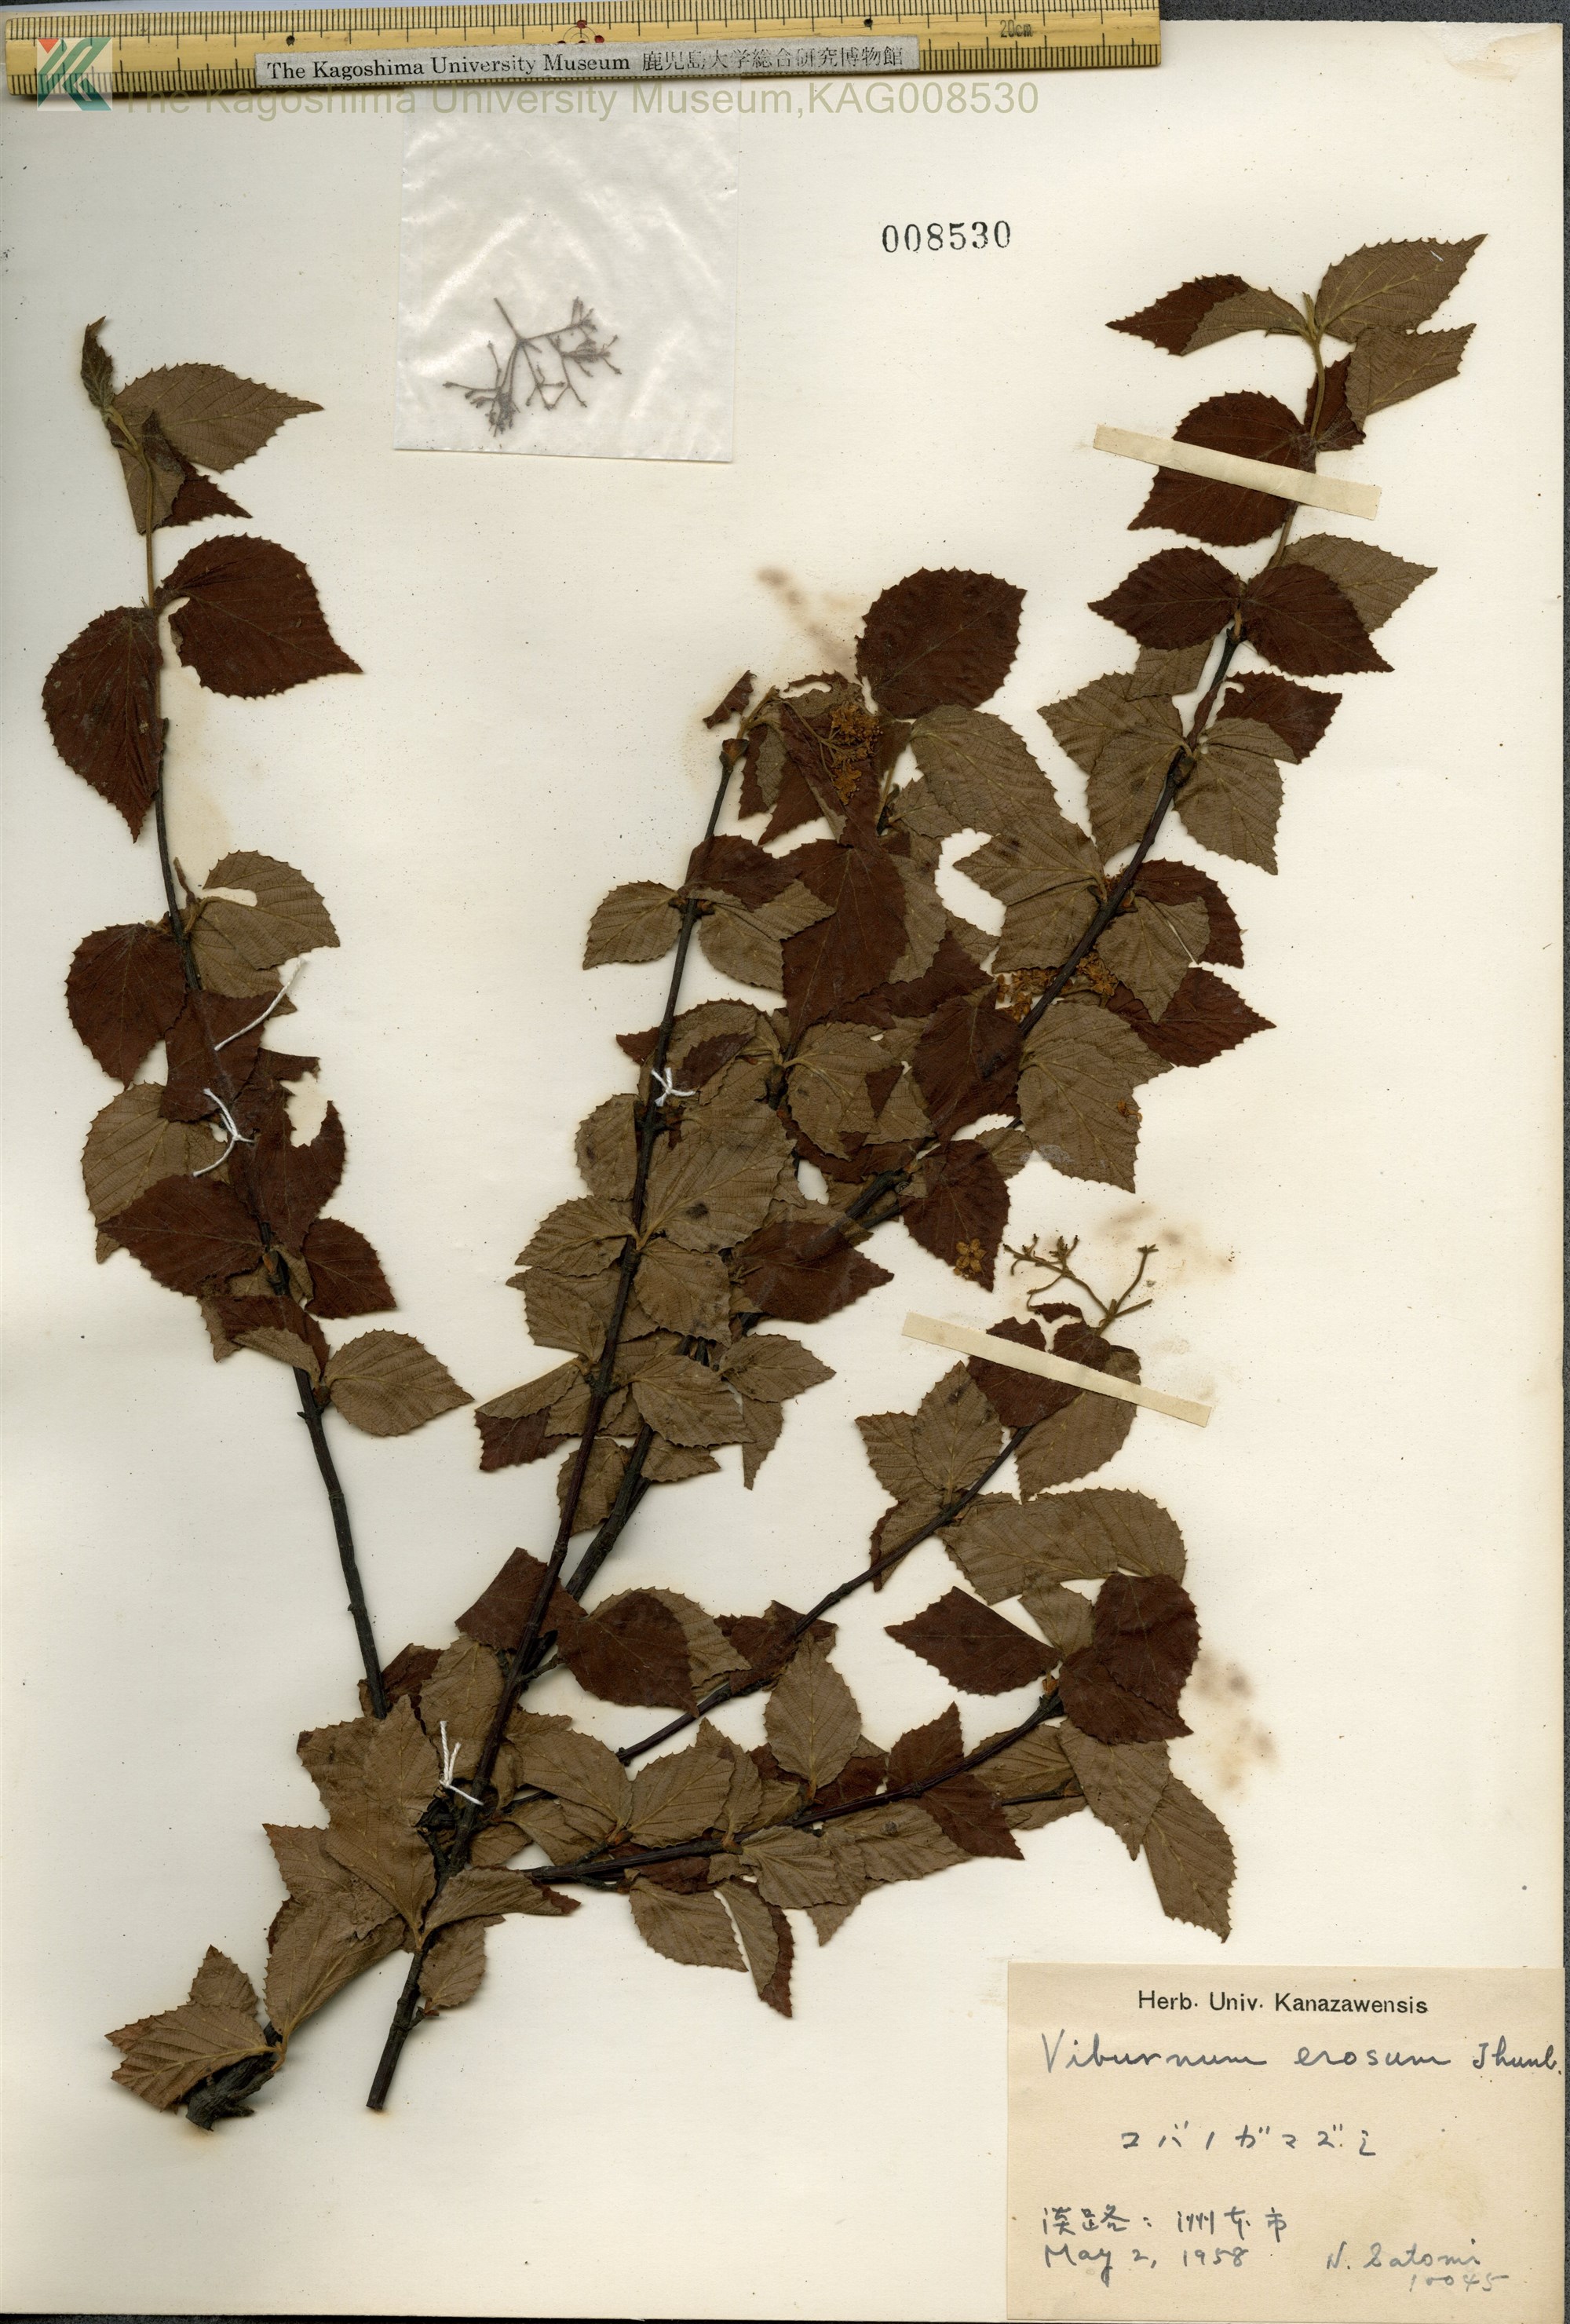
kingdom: Plantae
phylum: Tracheophyta
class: Magnoliopsida
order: Dipsacales
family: Viburnaceae
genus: Viburnum
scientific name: Viburnum erosum
